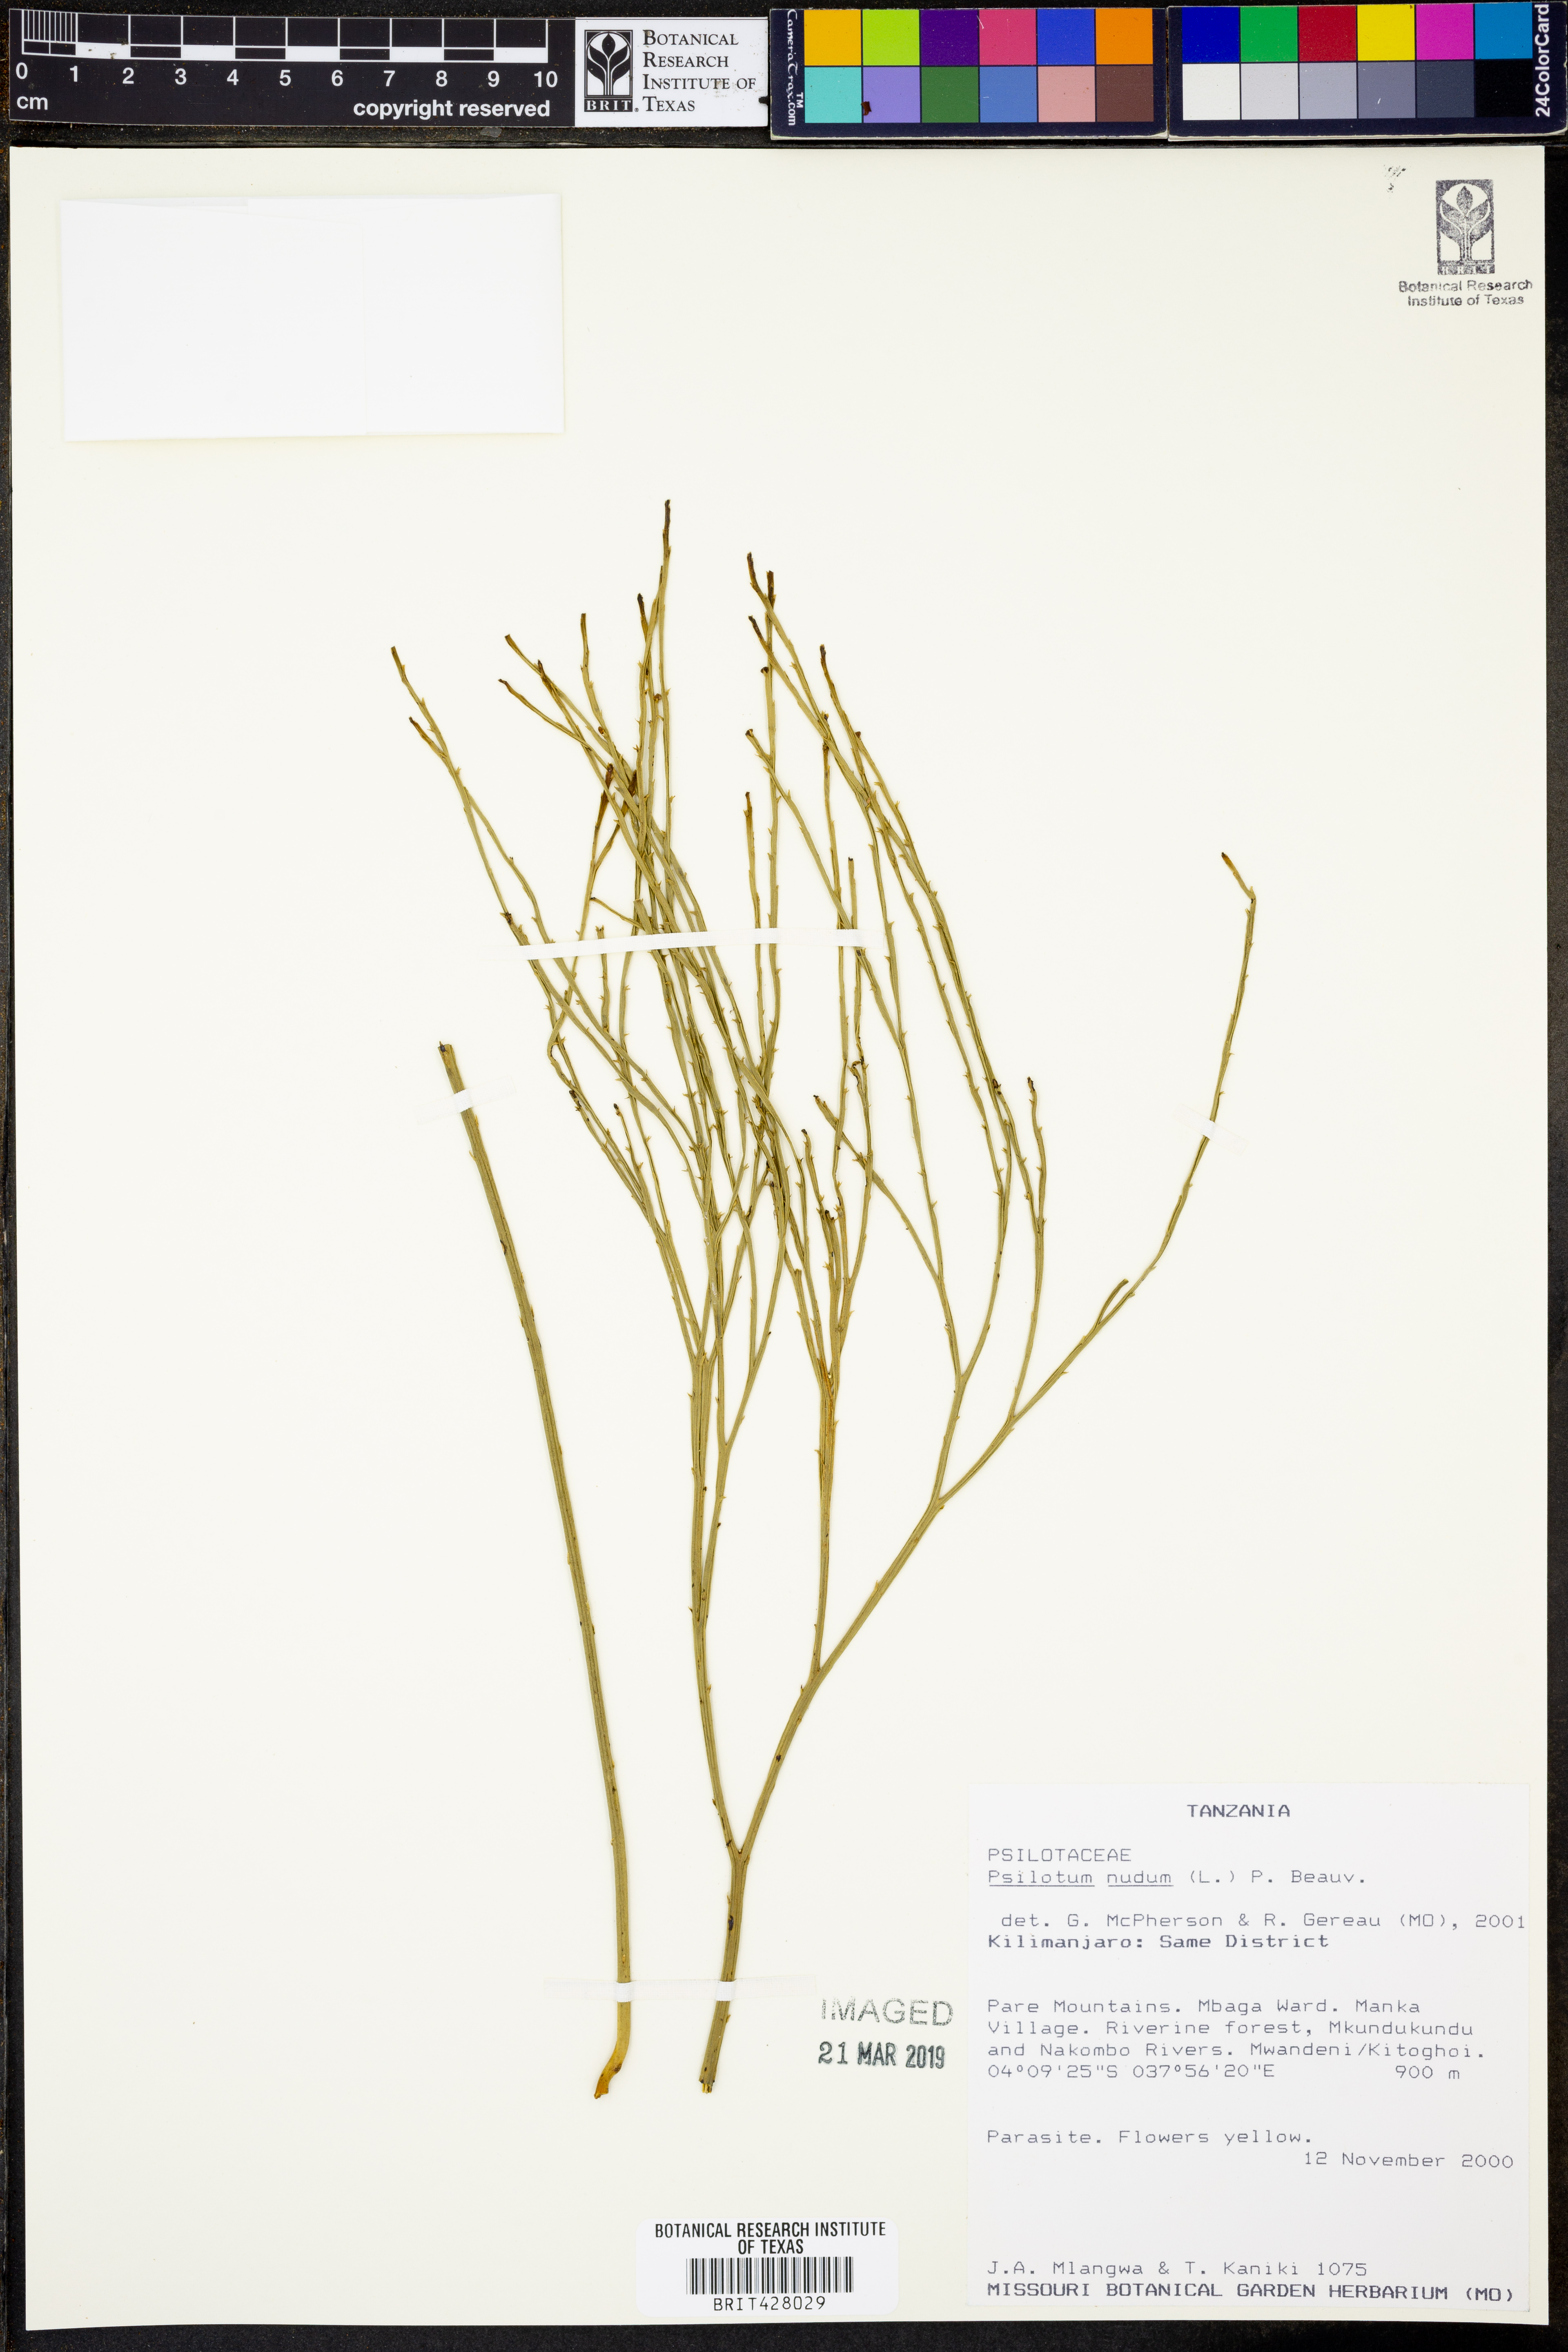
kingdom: Plantae
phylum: Tracheophyta
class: Polypodiopsida
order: Psilotales
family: Psilotaceae
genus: Psilotum
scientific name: Psilotum nudum
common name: Skeleton fork fern
